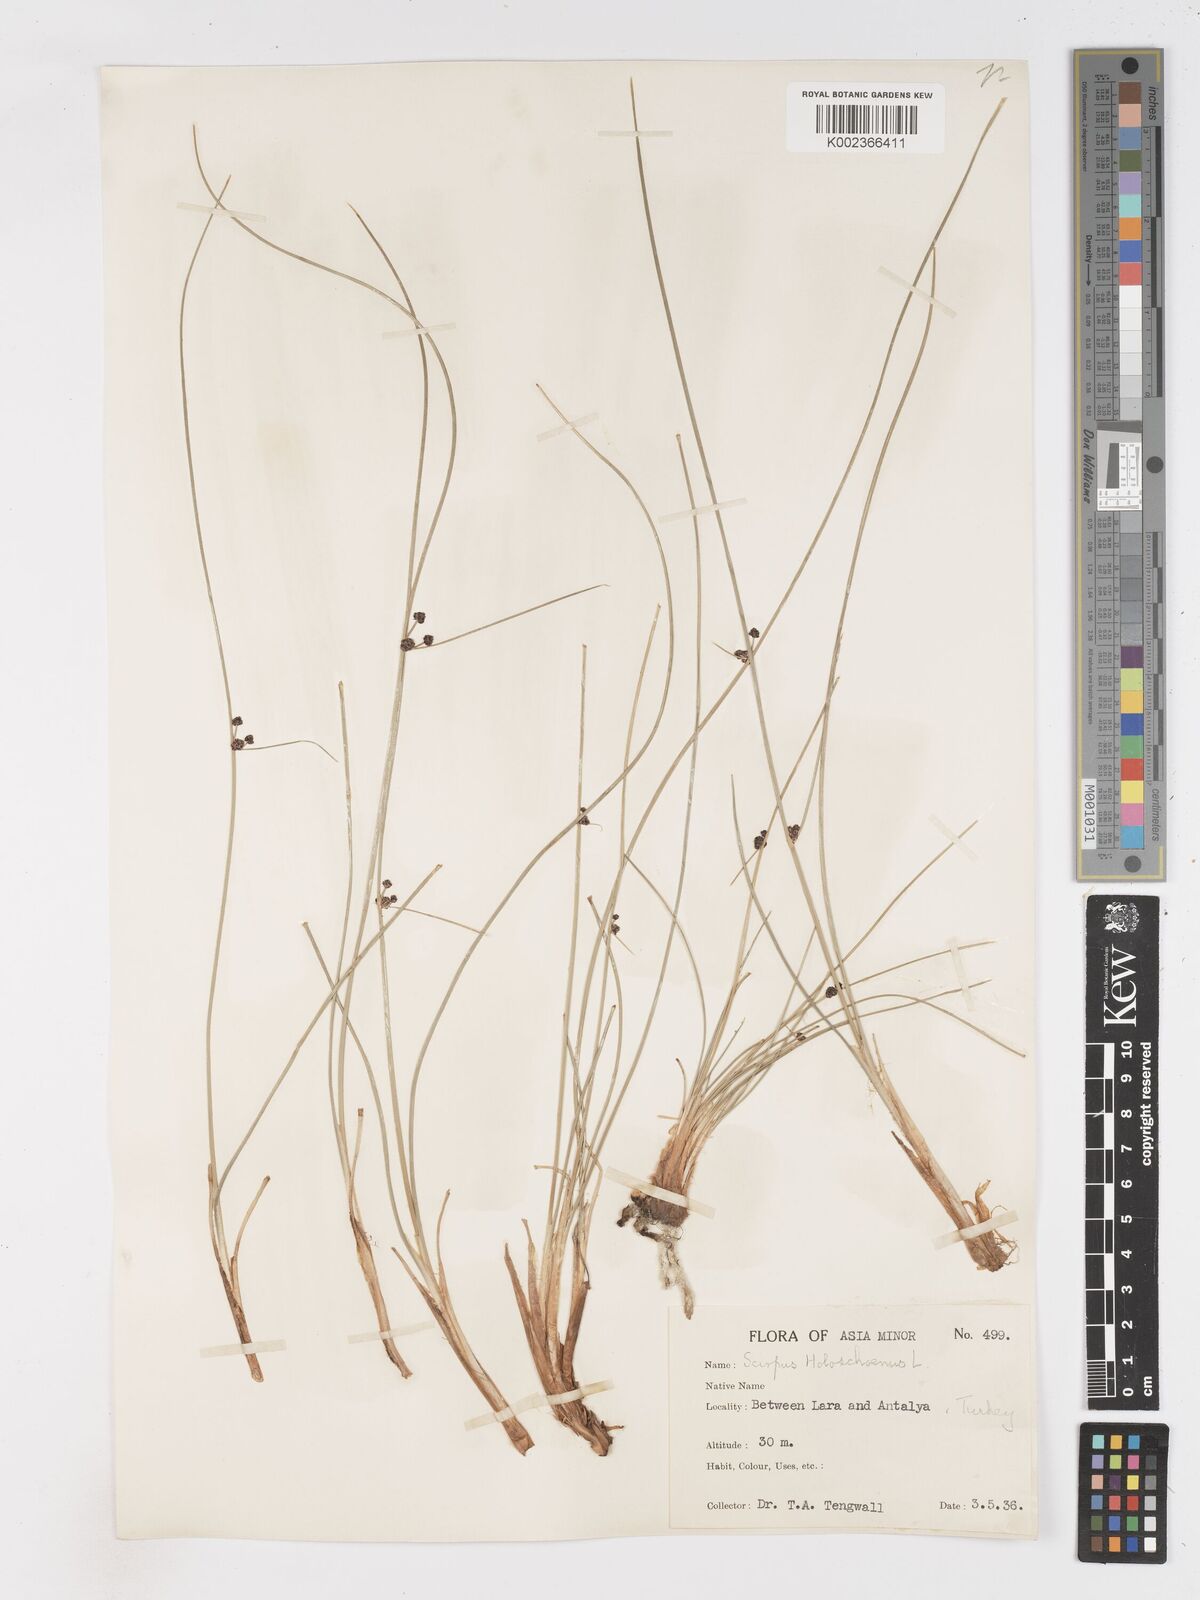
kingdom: Plantae
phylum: Tracheophyta
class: Liliopsida
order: Poales
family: Cyperaceae
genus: Scirpoides
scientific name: Scirpoides holoschoenus
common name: Round-headed club-rush
